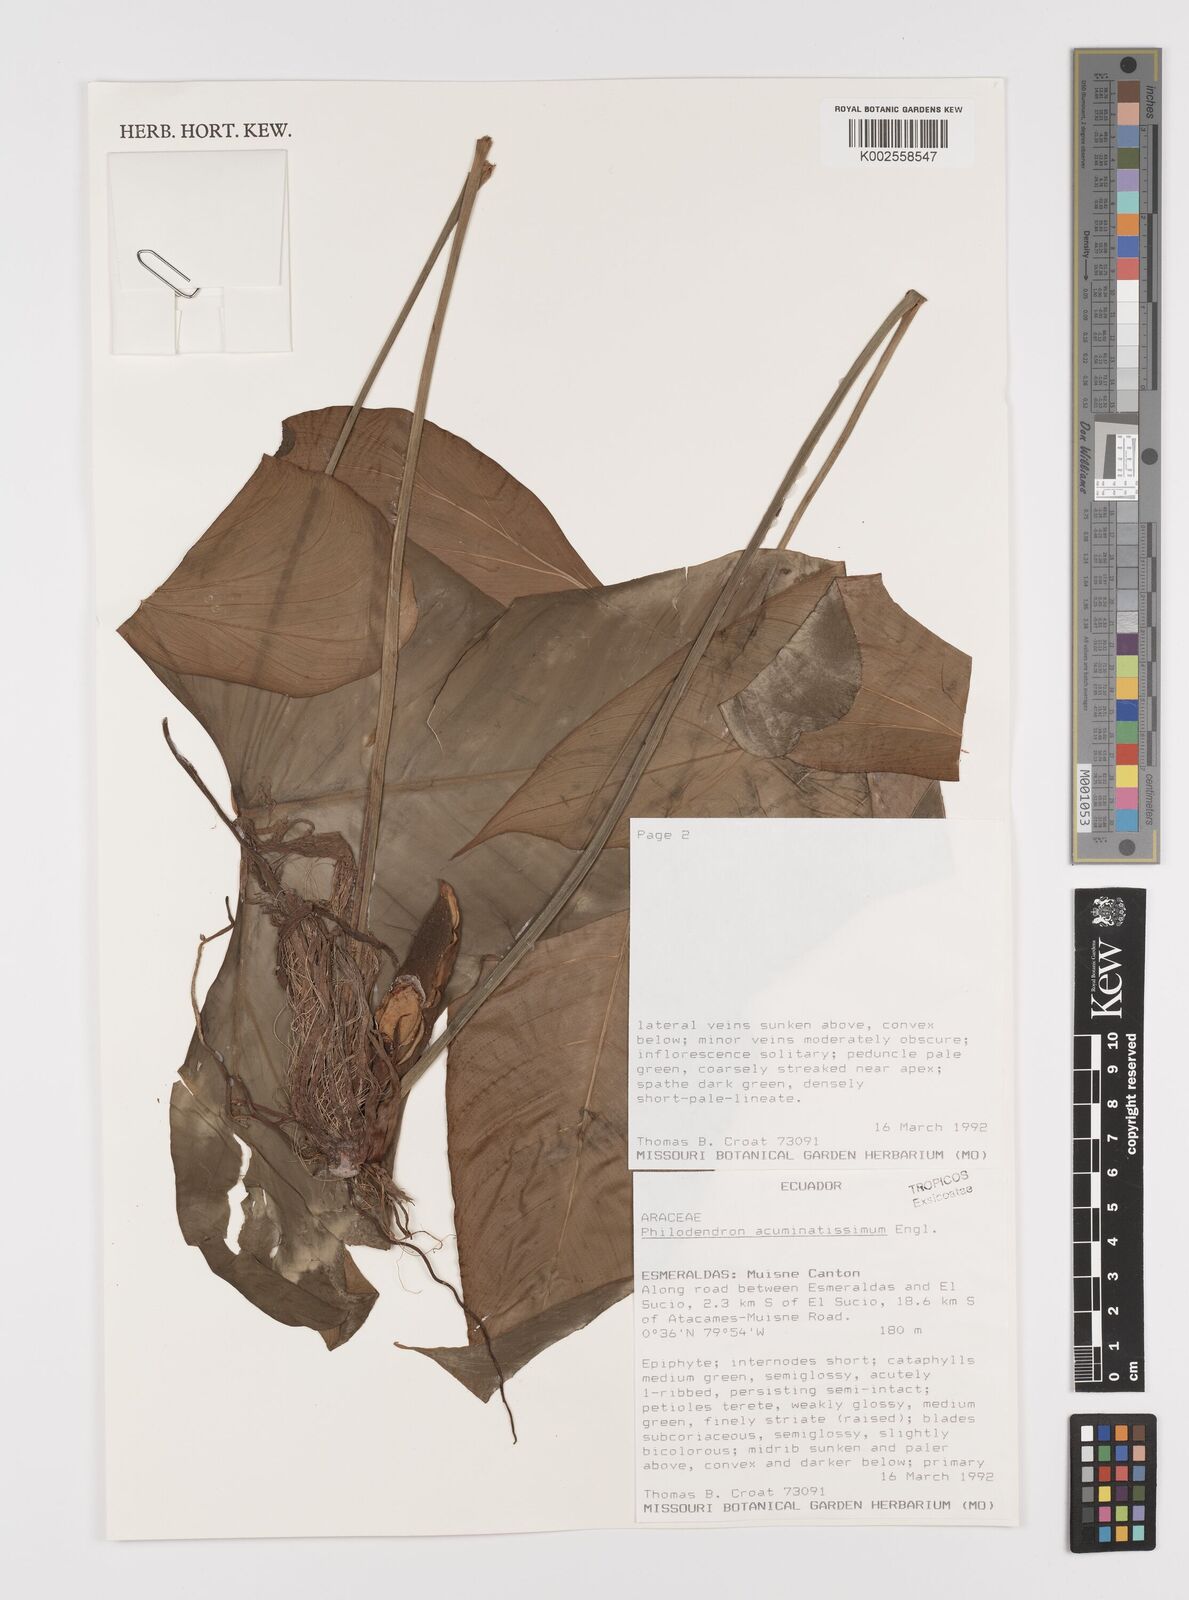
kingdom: Plantae
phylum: Tracheophyta
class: Liliopsida
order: Alismatales
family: Araceae
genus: Philodendron
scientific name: Philodendron acuminatissimum
